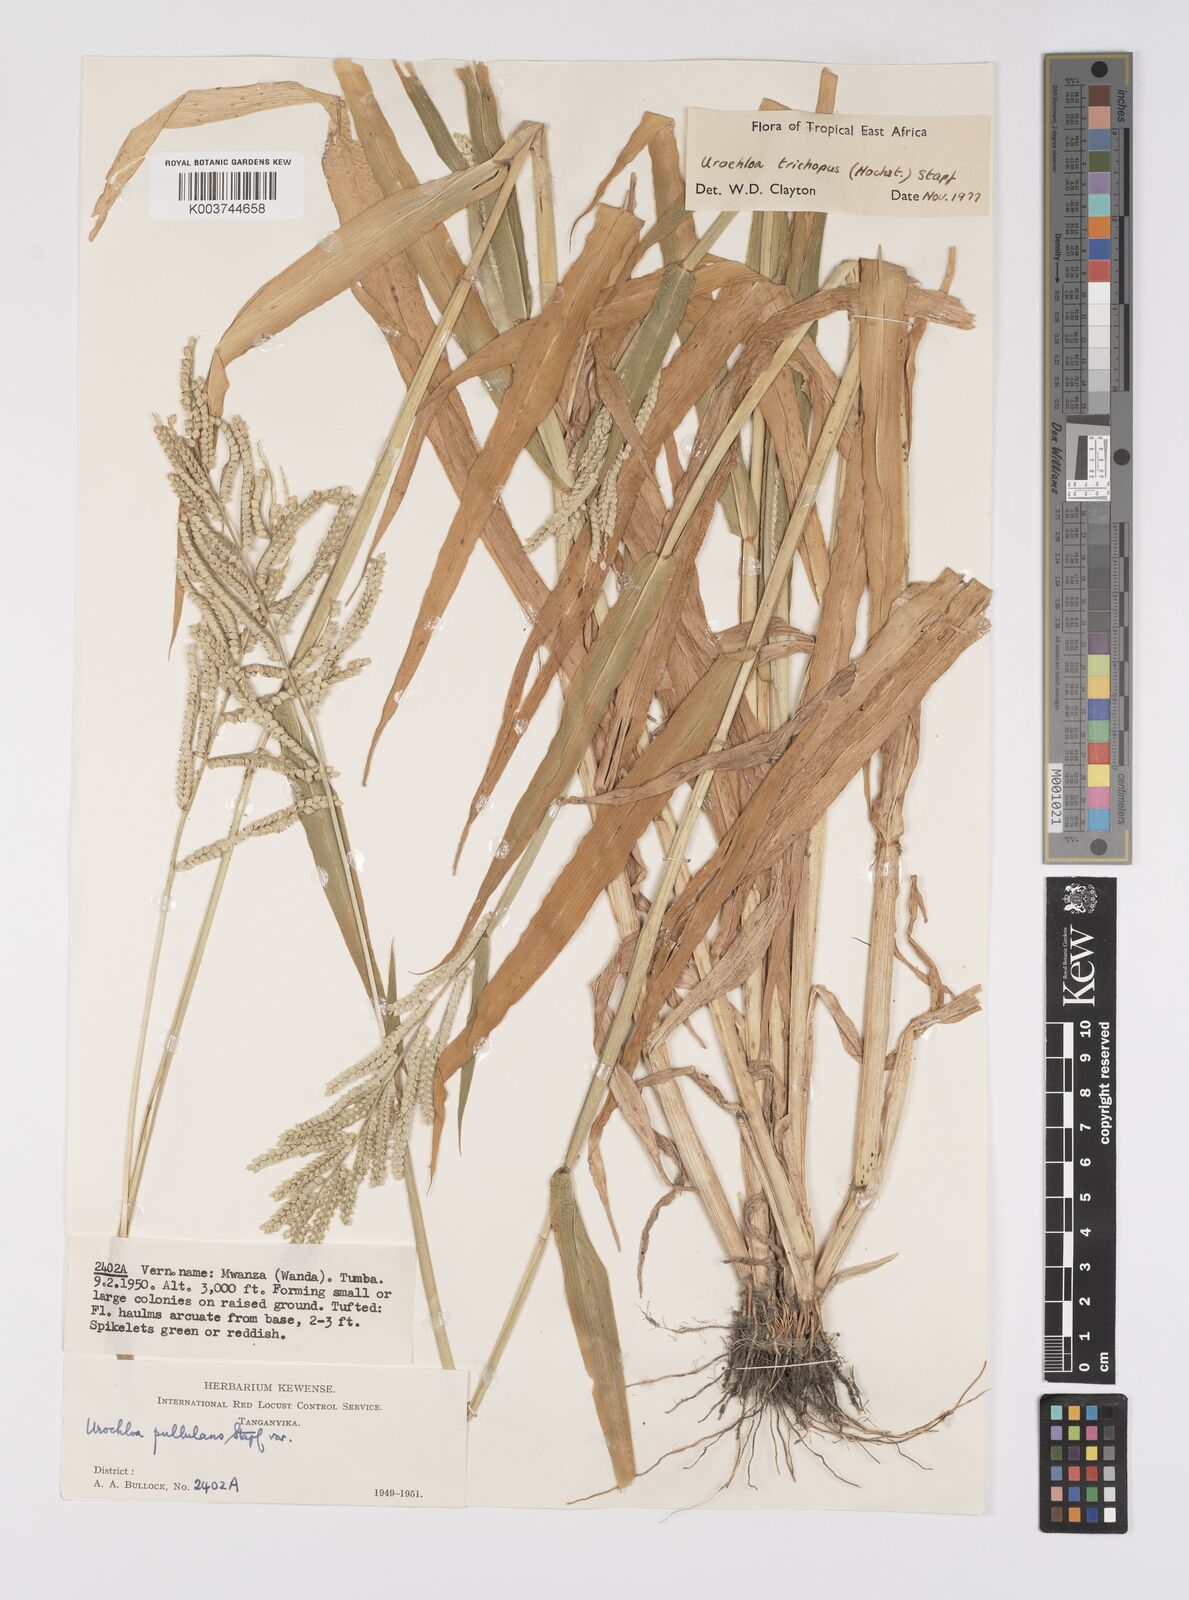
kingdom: Plantae
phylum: Tracheophyta
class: Liliopsida
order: Poales
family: Poaceae
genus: Urochloa
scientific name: Urochloa trichopus
